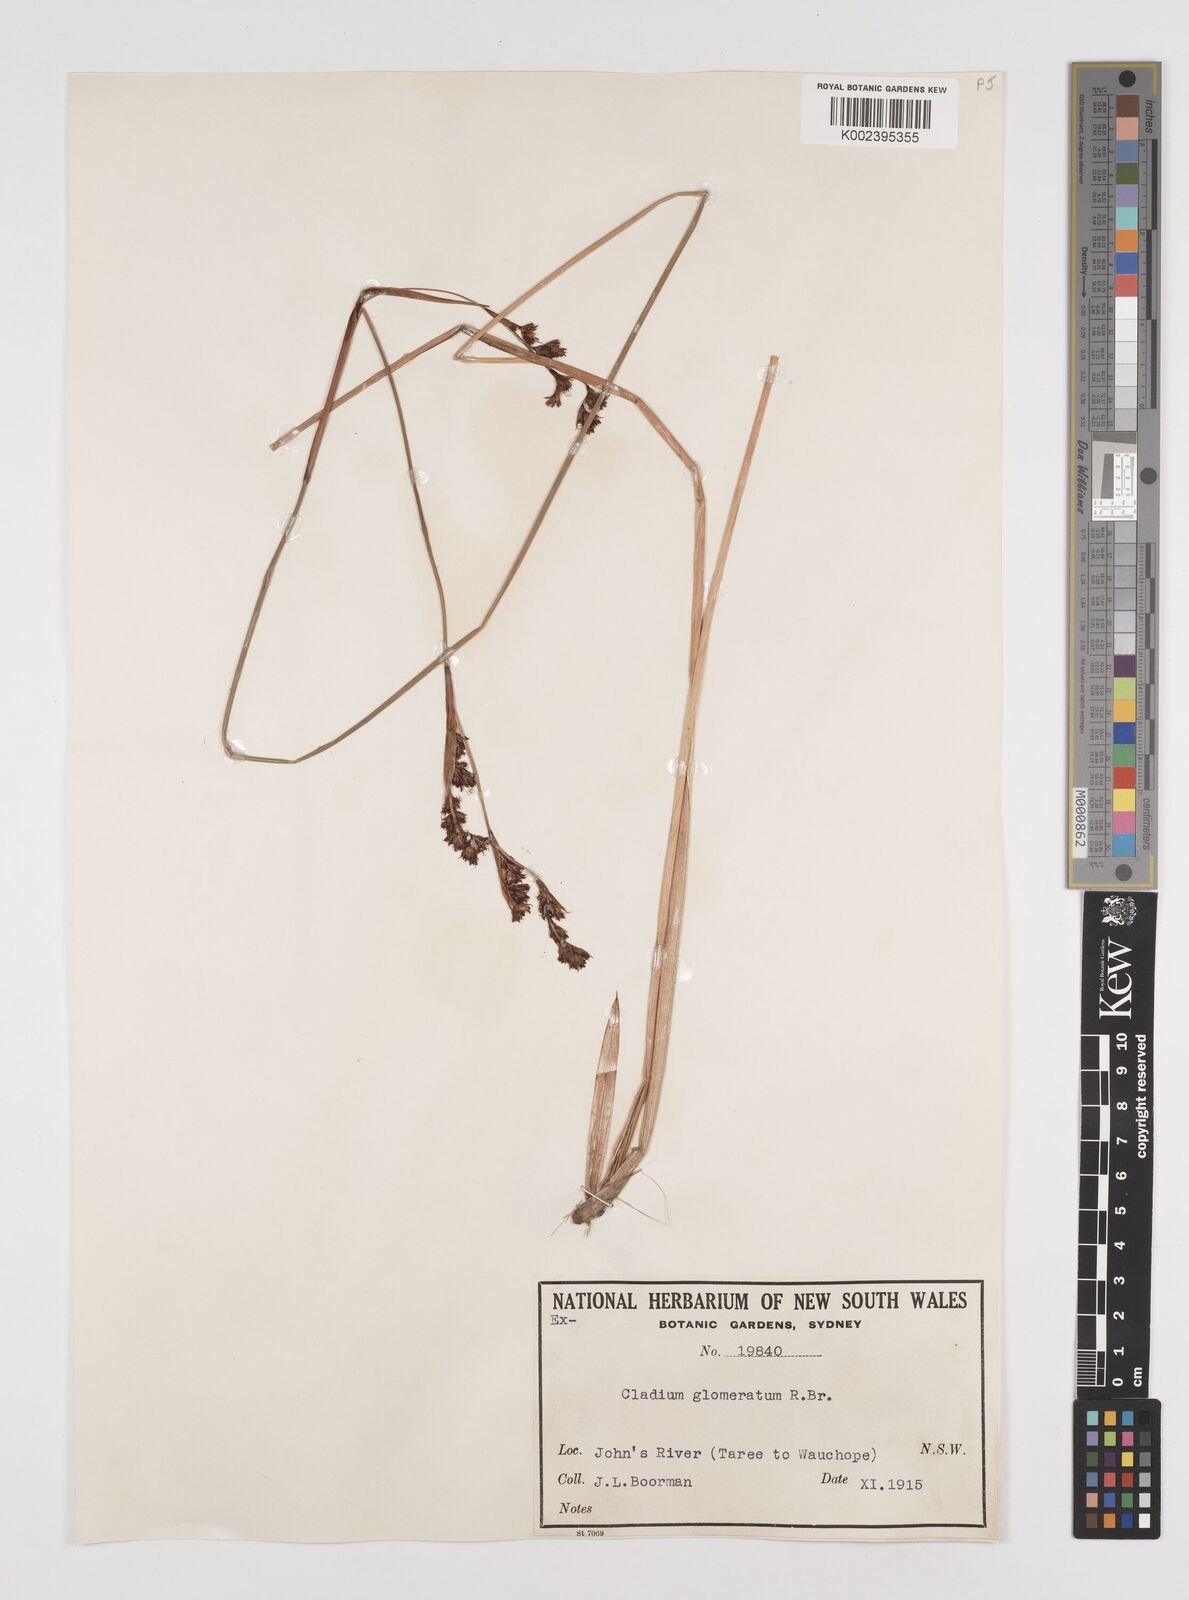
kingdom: Plantae
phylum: Tracheophyta
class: Liliopsida
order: Poales
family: Cyperaceae
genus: Machaerina
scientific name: Machaerina rubiginosa
